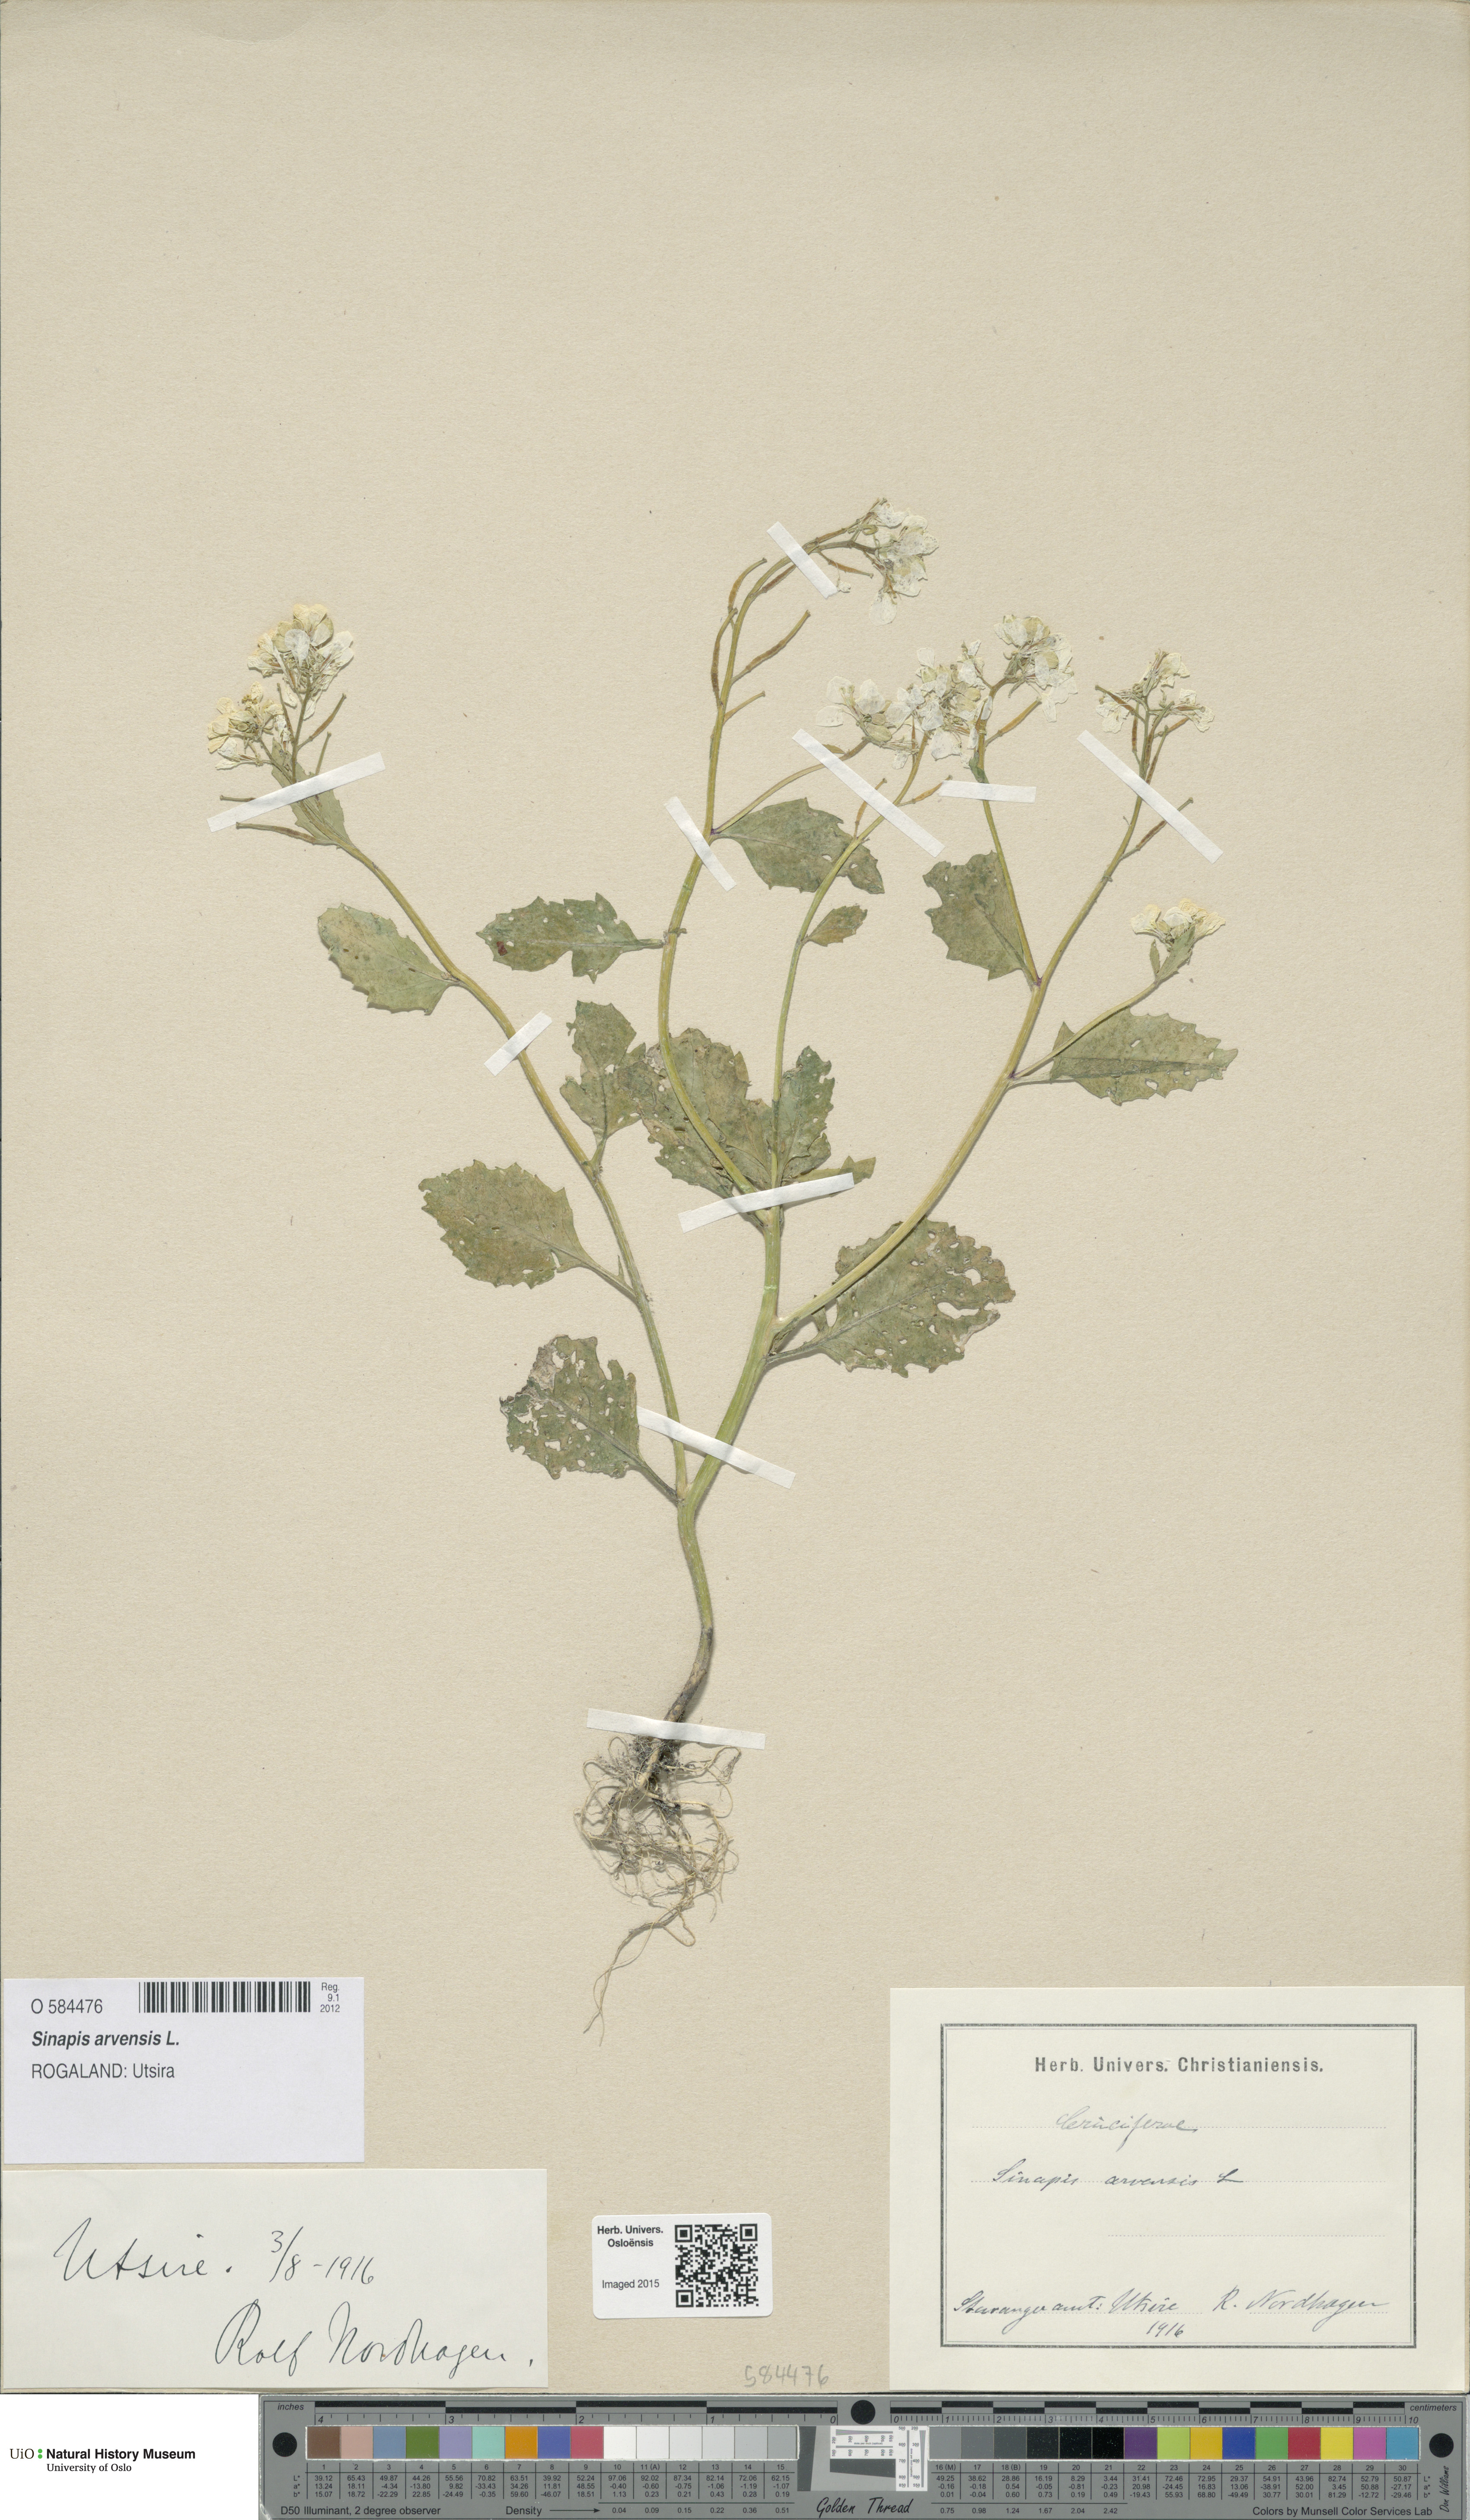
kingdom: Plantae
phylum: Tracheophyta
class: Magnoliopsida
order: Brassicales
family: Brassicaceae
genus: Sinapis
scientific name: Sinapis arvensis
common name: Charlock
